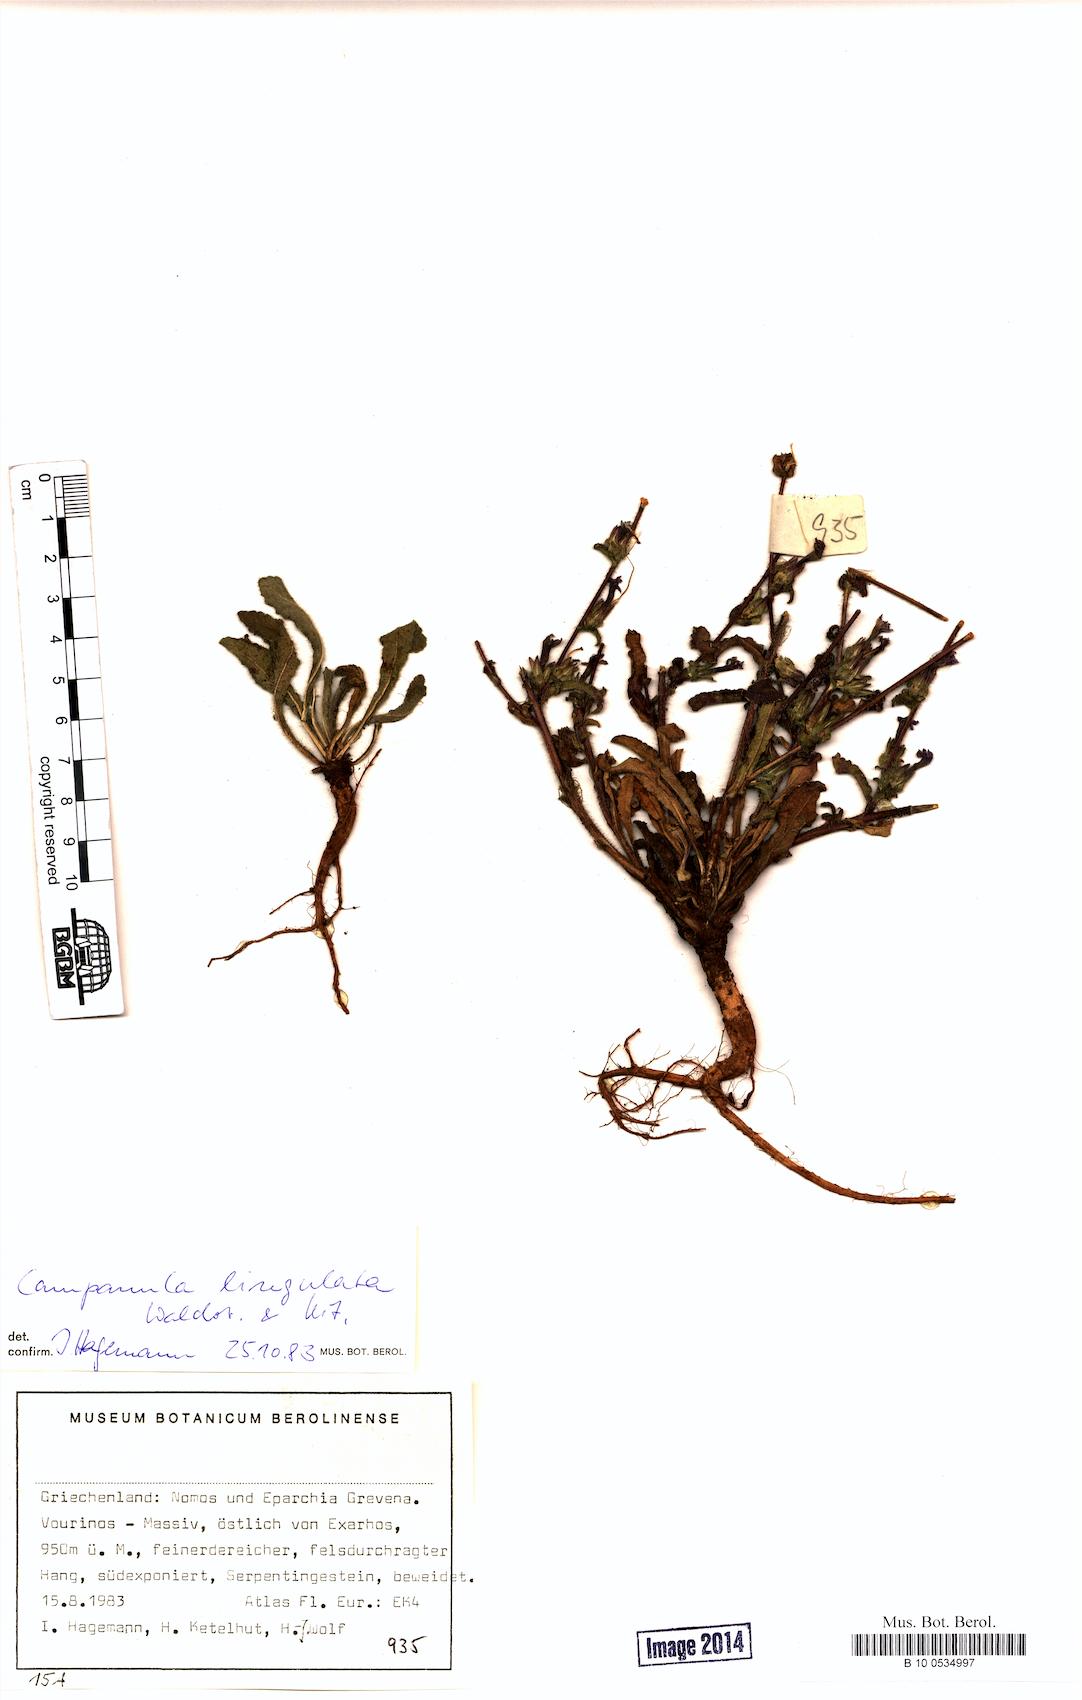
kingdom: Plantae
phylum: Tracheophyta
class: Magnoliopsida
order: Asterales
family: Campanulaceae
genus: Campanula
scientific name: Campanula lingulata
